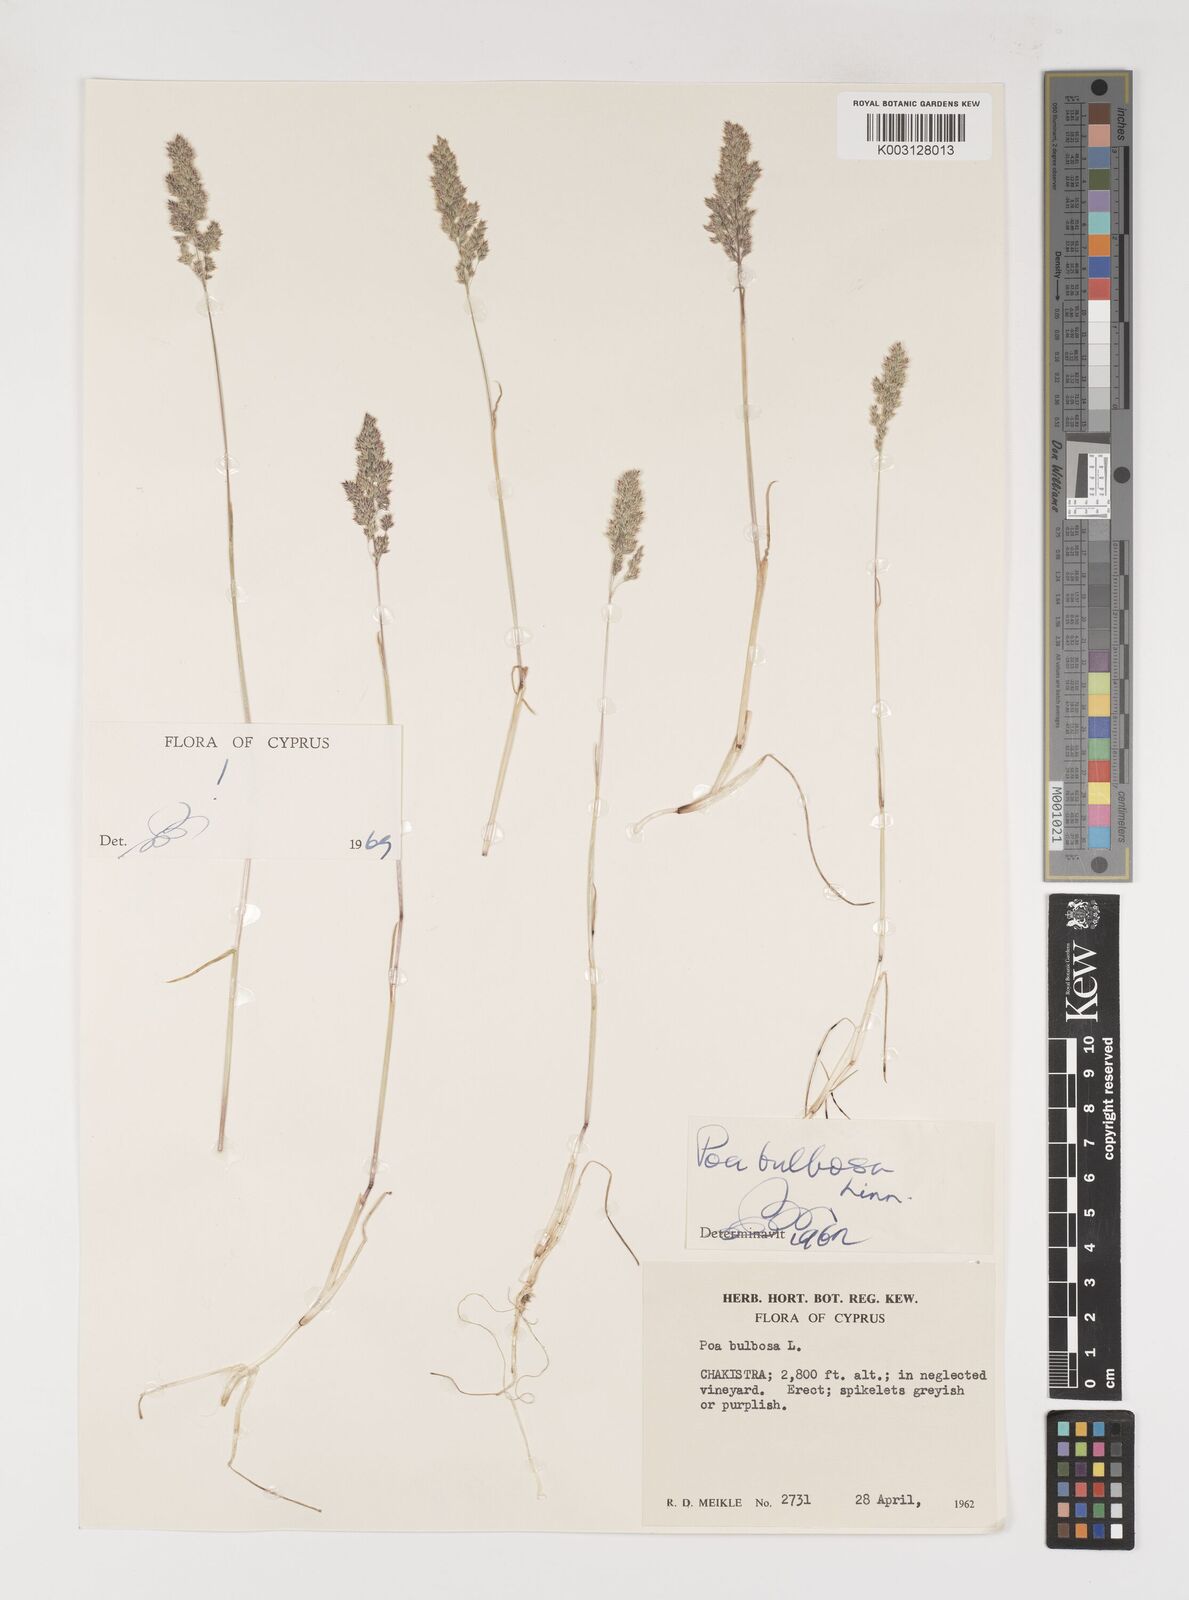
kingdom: Plantae
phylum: Tracheophyta
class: Liliopsida
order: Poales
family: Poaceae
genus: Poa
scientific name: Poa bulbosa
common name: Bulbous bluegrass
